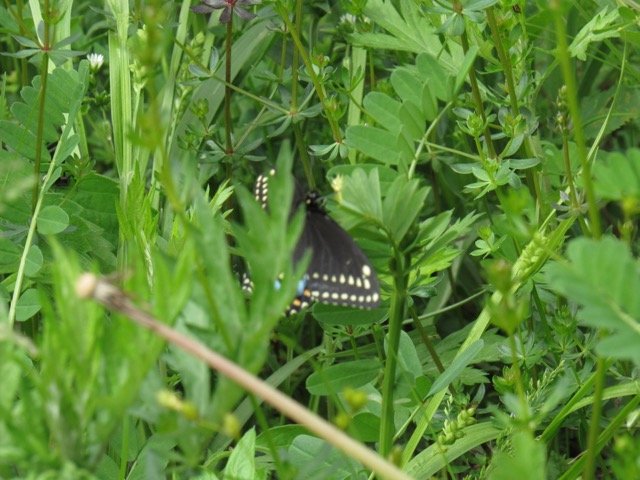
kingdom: Animalia
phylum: Arthropoda
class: Insecta
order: Lepidoptera
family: Papilionidae
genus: Papilio
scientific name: Papilio polyxenes
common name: Black Swallowtail
